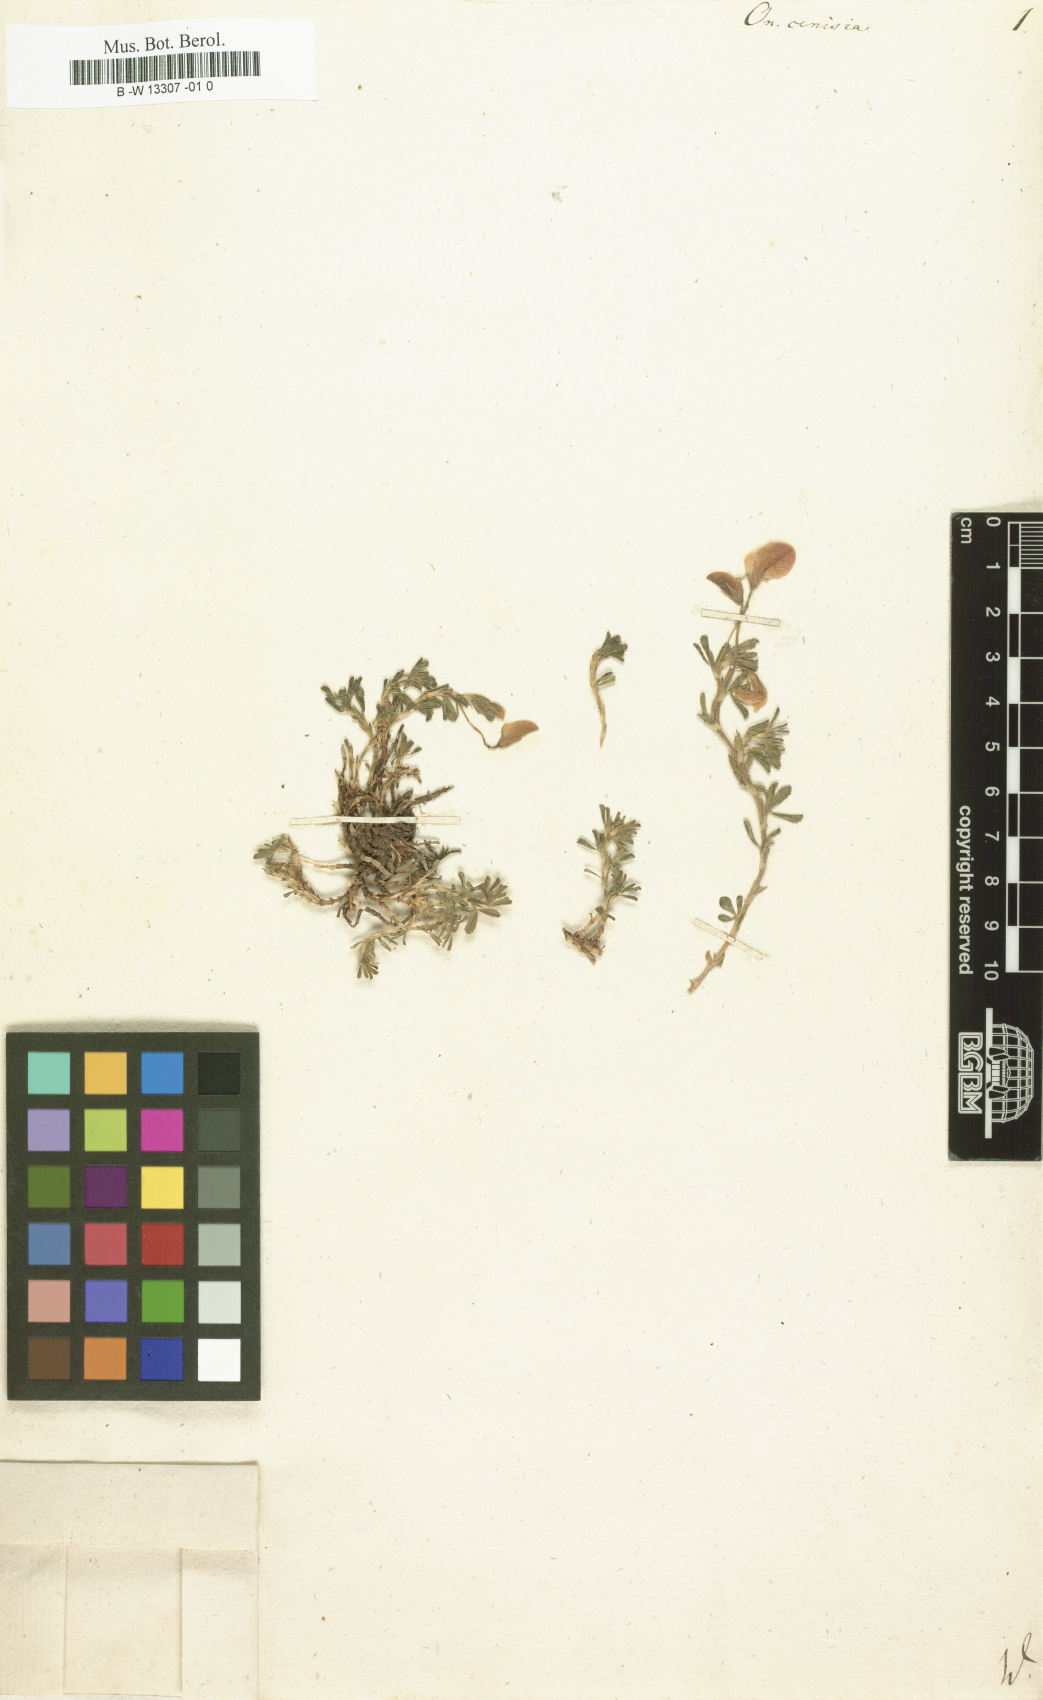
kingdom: Plantae
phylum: Tracheophyta
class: Magnoliopsida
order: Fabales
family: Fabaceae
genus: Ononis
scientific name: Ononis cristata
